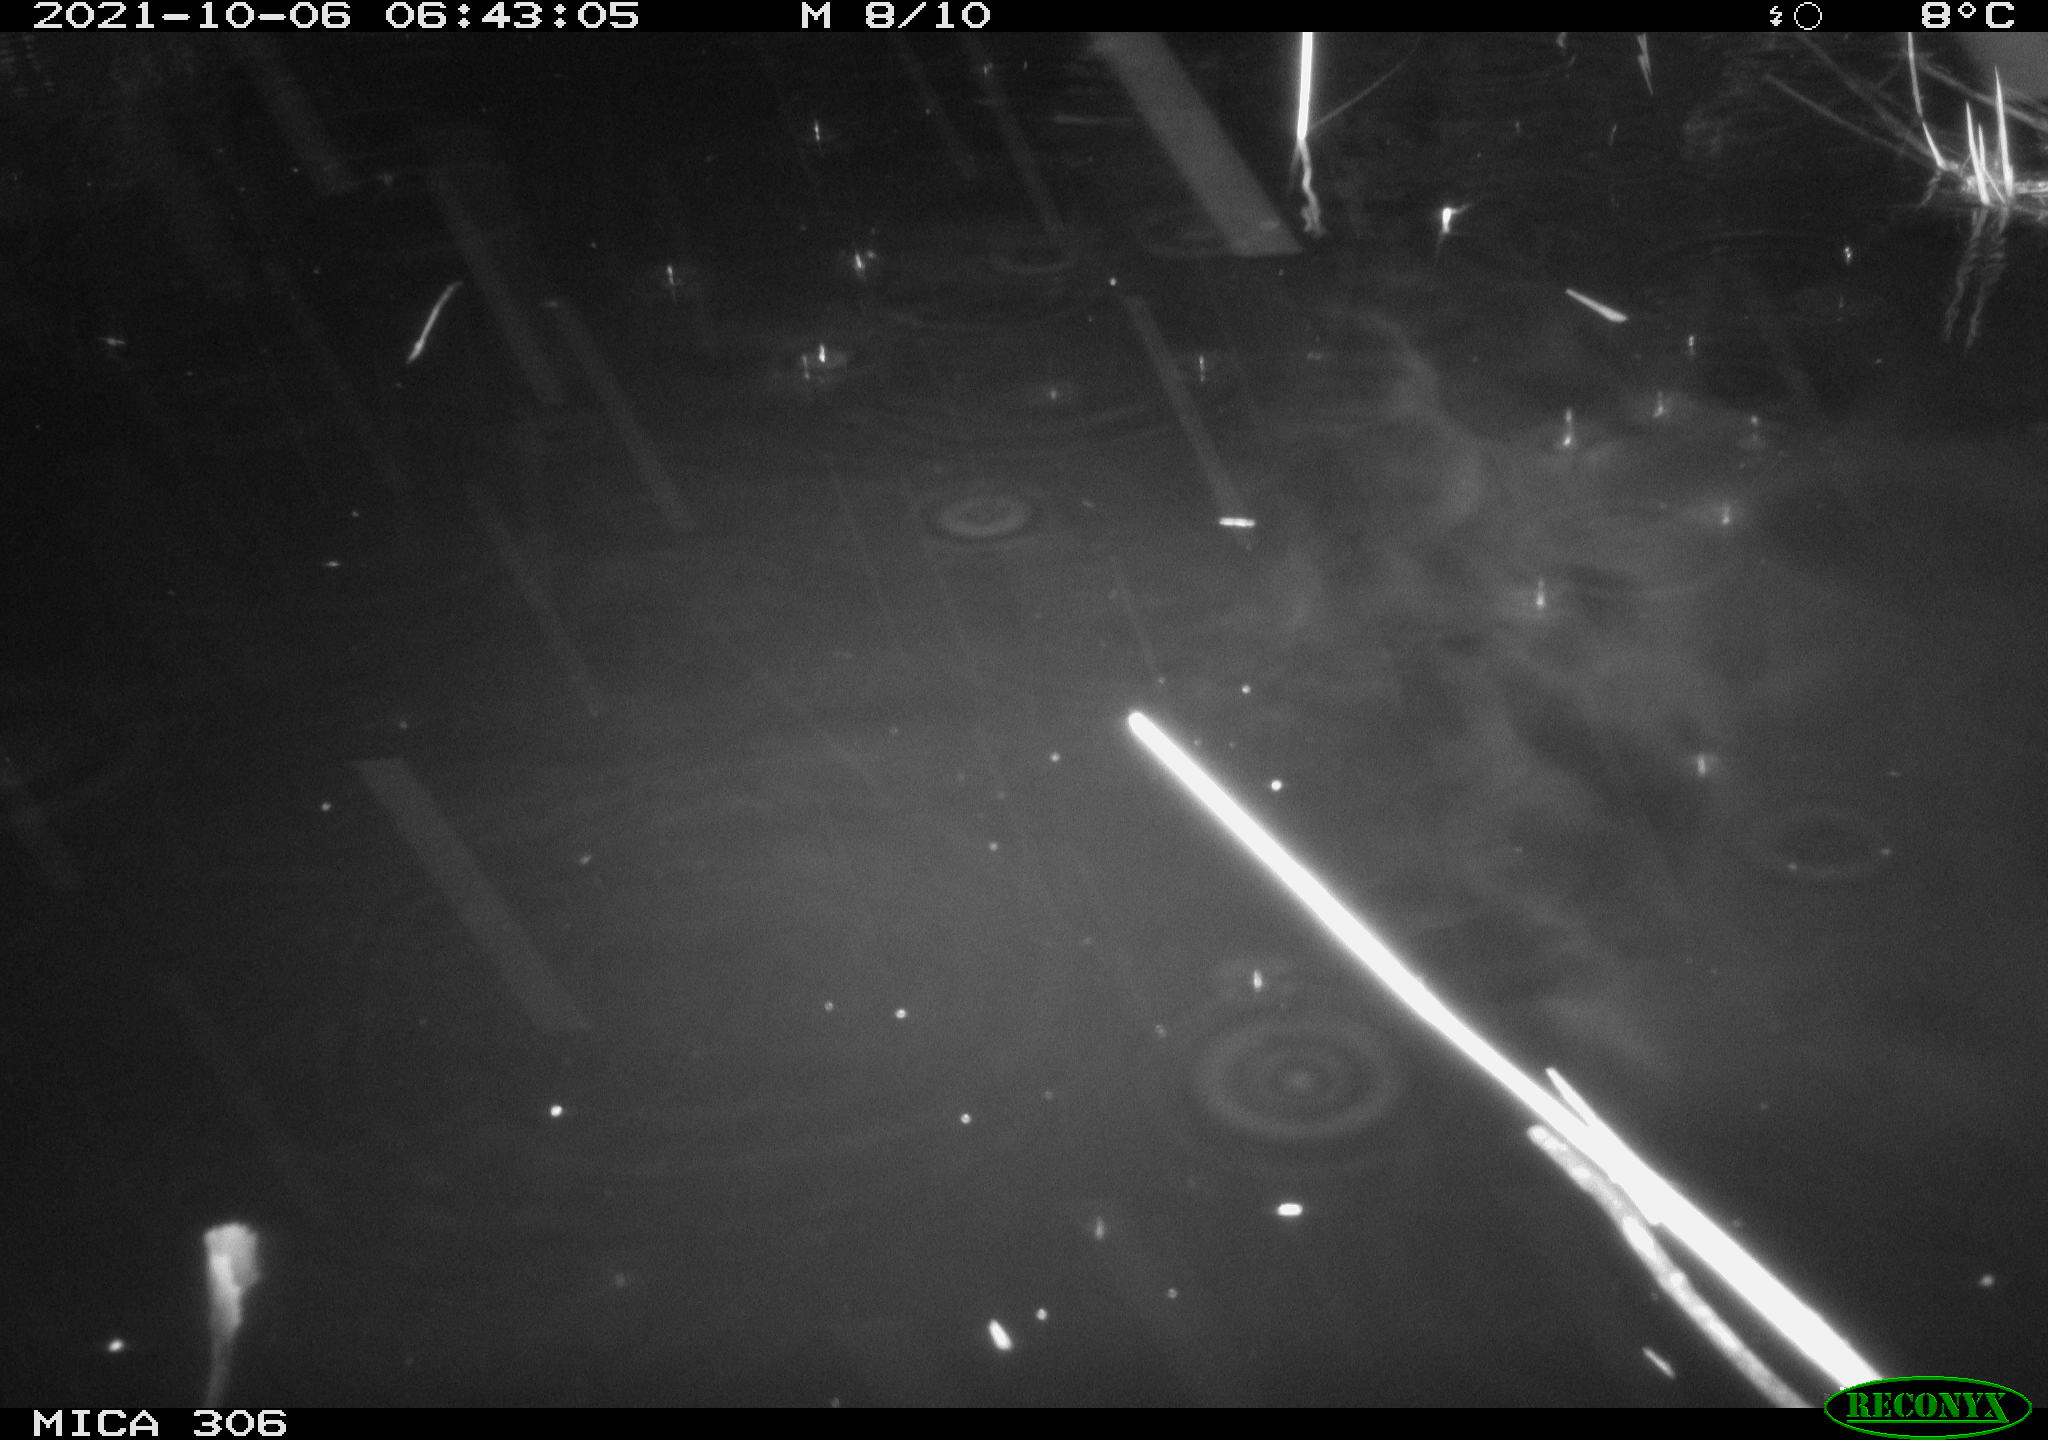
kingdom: Animalia
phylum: Chordata
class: Mammalia
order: Rodentia
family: Cricetidae
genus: Ondatra
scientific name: Ondatra zibethicus
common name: Muskrat
